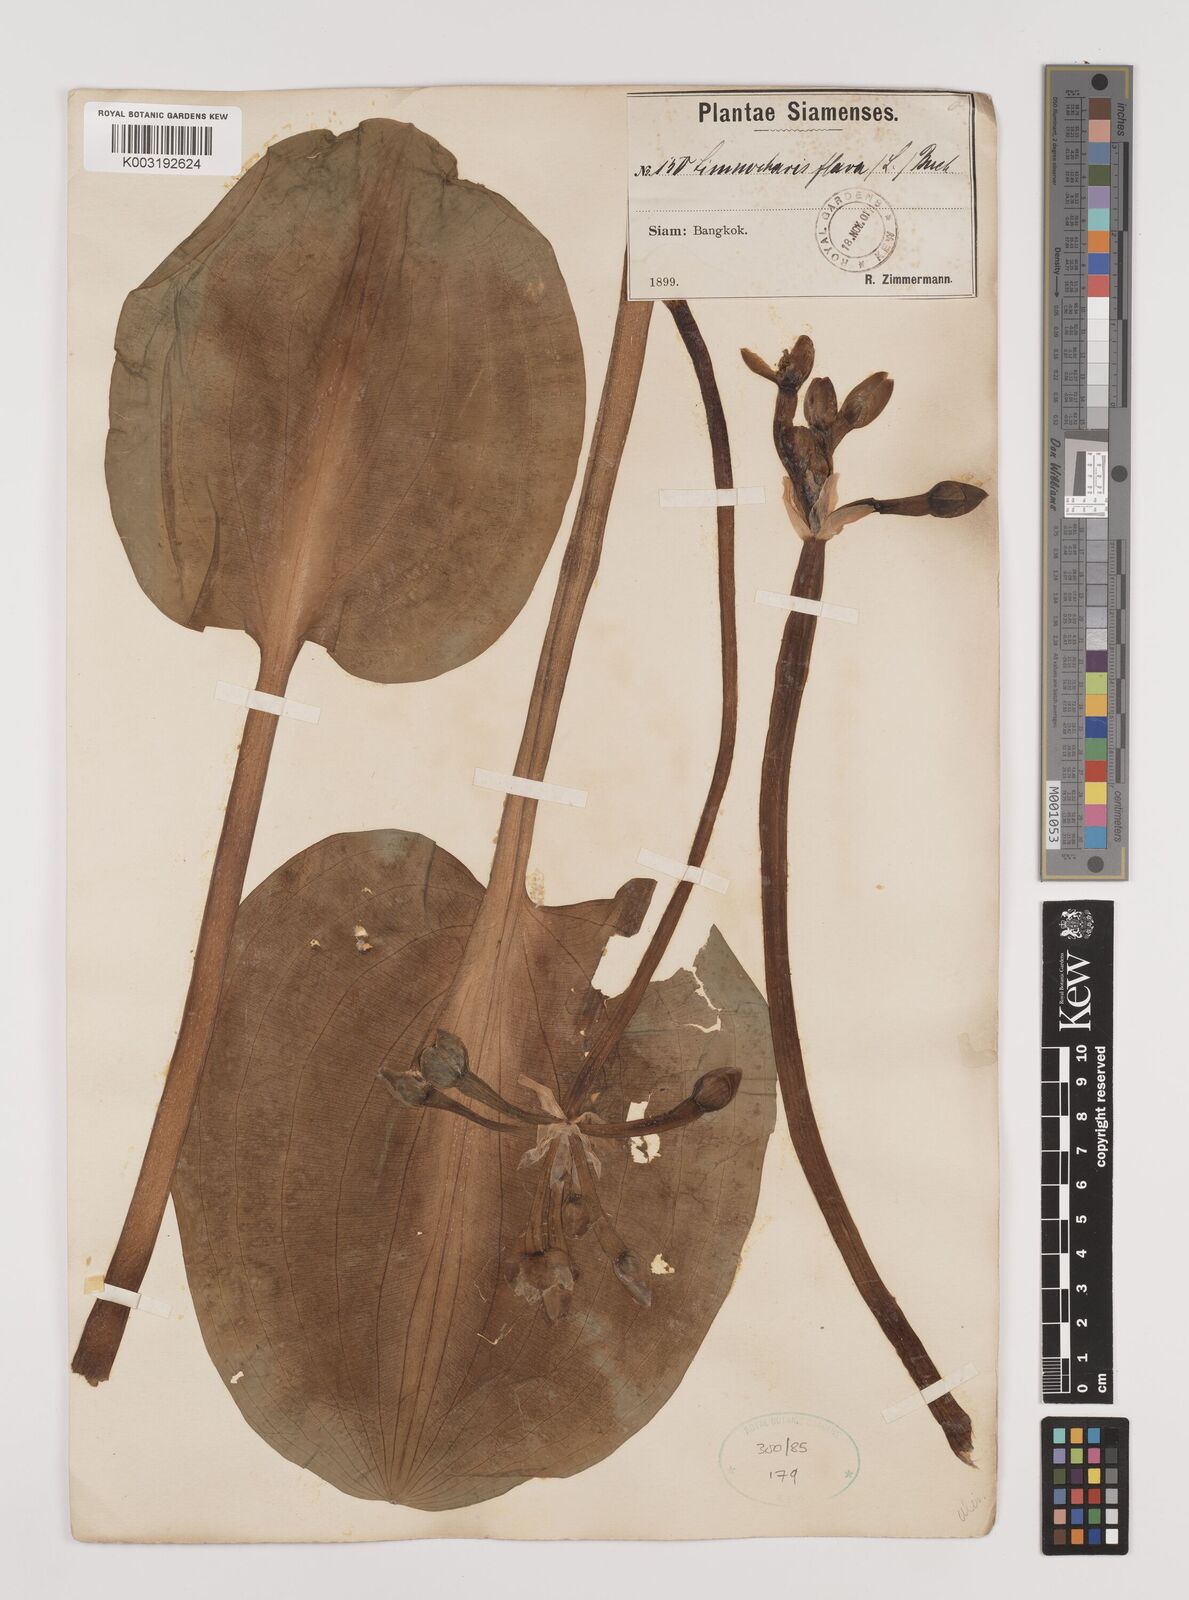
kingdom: Plantae
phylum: Tracheophyta
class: Liliopsida
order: Alismatales
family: Alismataceae
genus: Limnocharis
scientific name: Limnocharis flava
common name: Sawah-flower-rush
